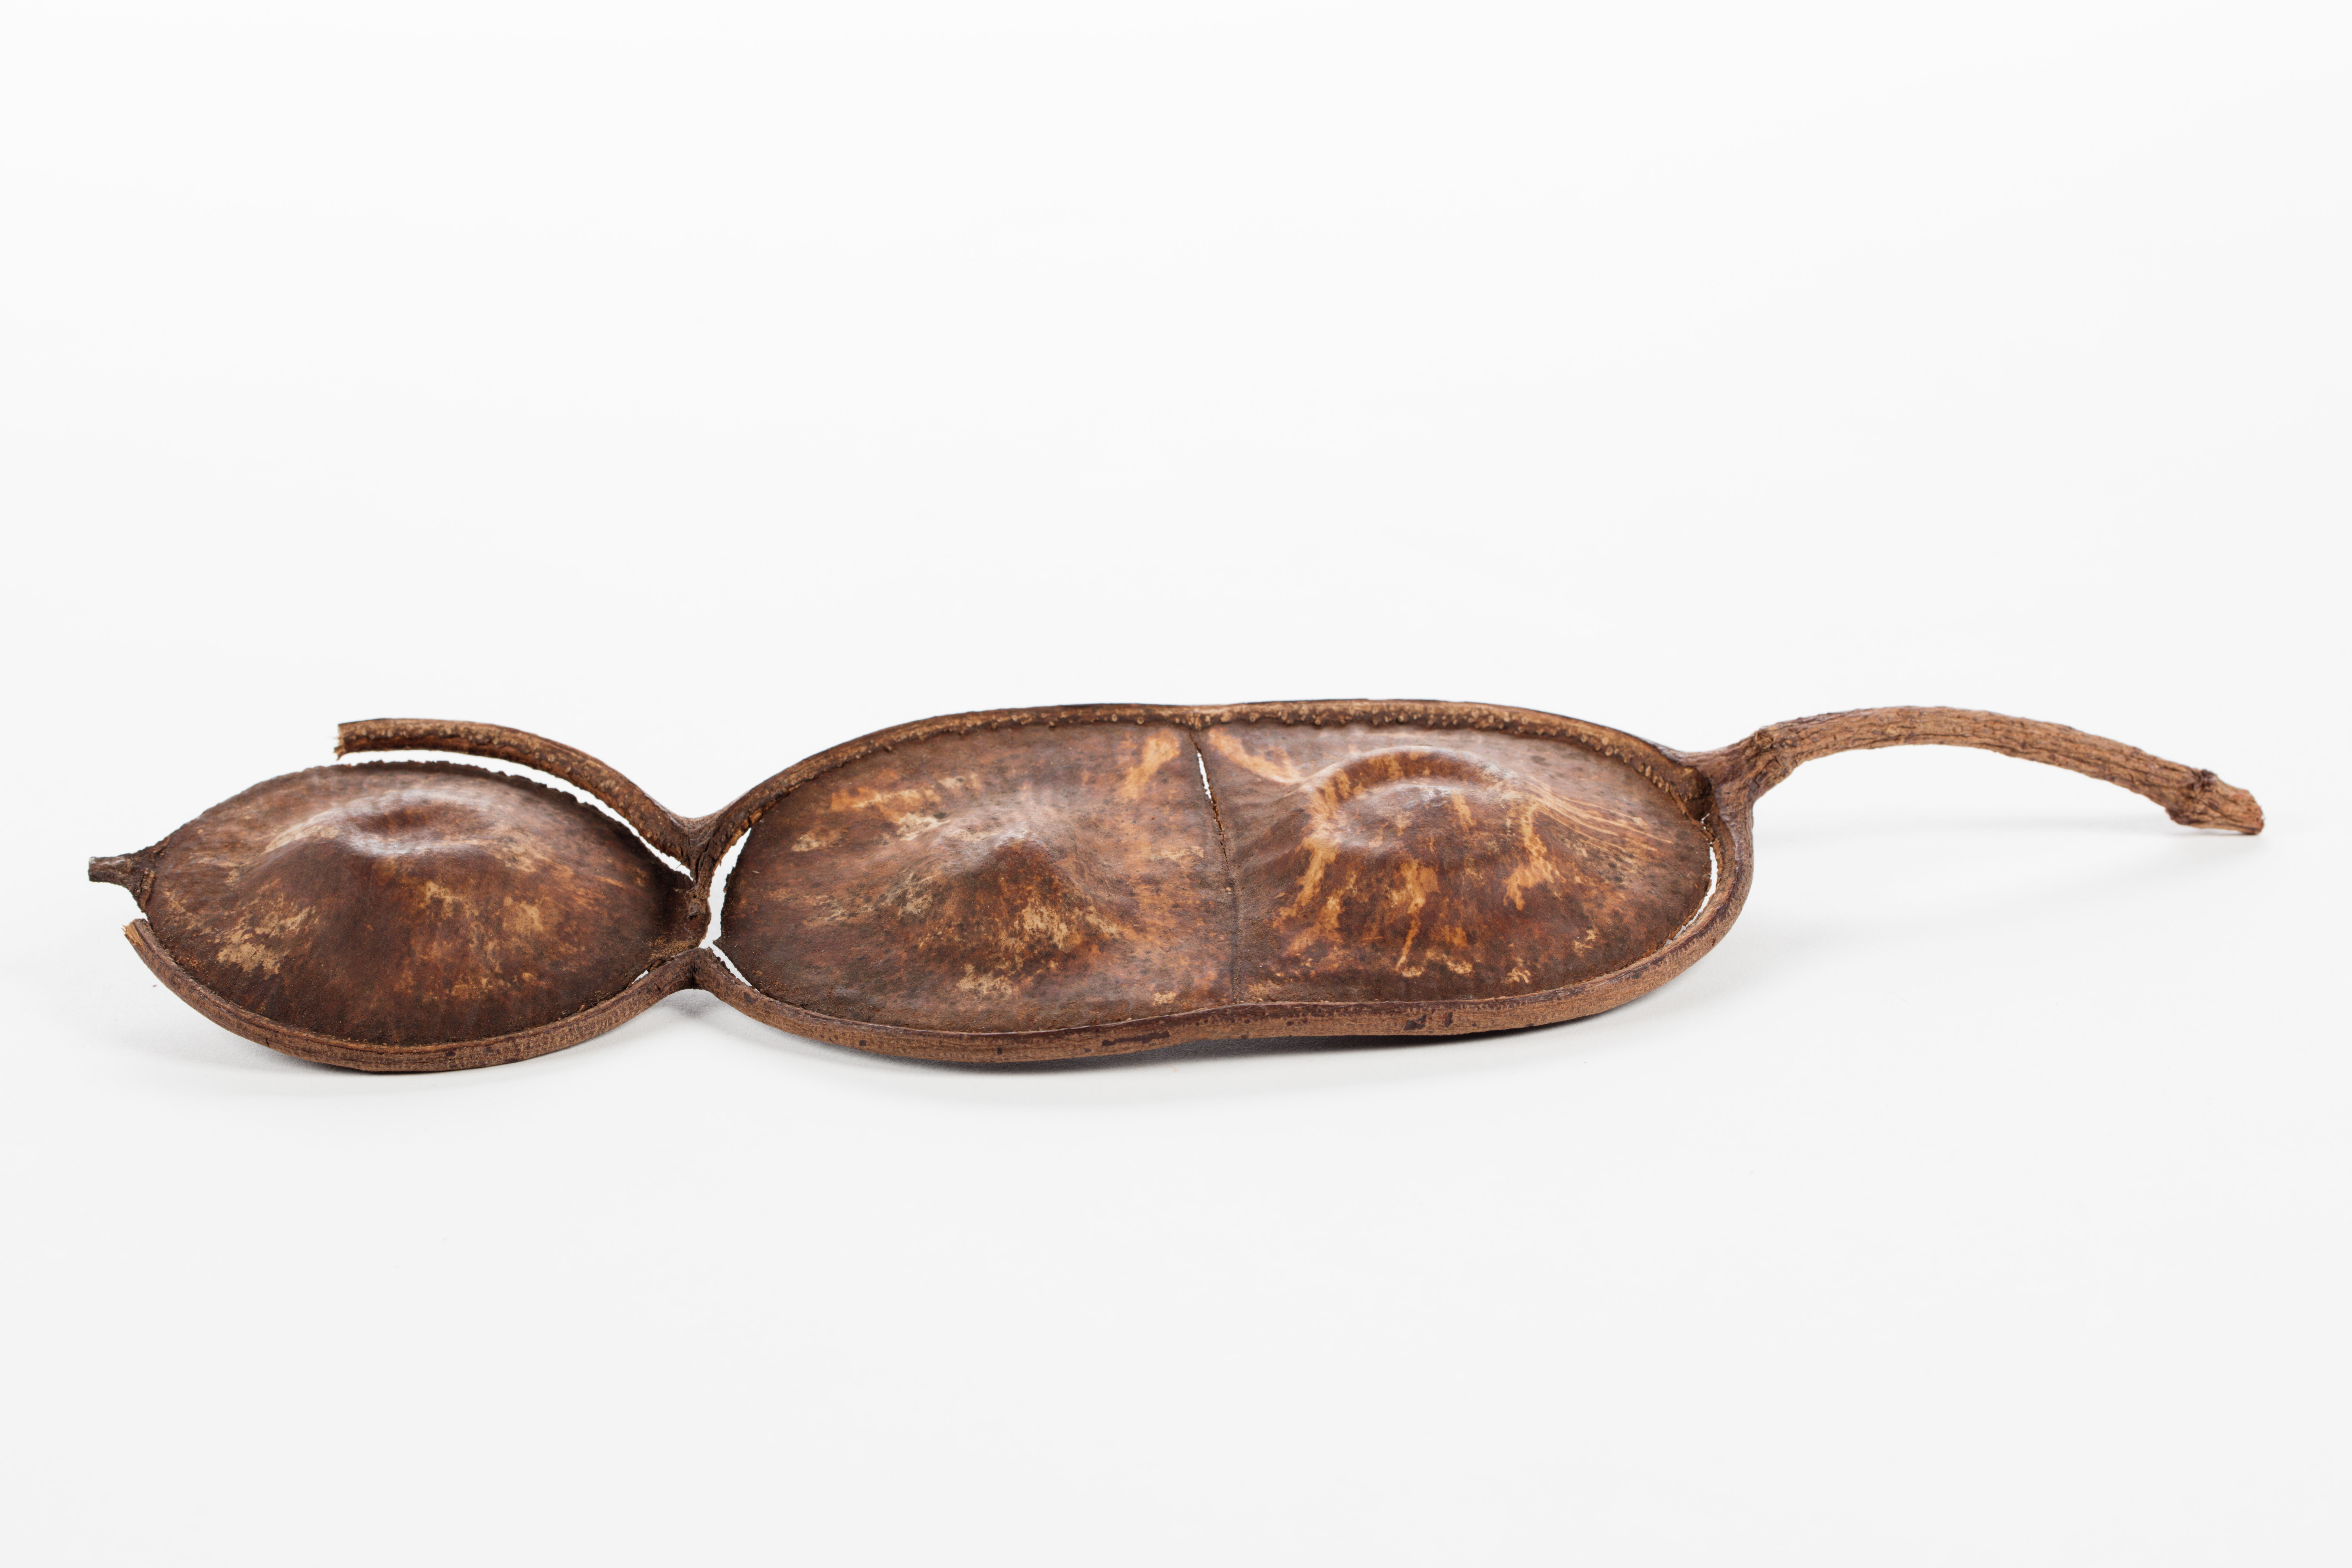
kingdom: Plantae
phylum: Tracheophyta
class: Magnoliopsida
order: Fabales
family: Fabaceae
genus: Entada
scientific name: Entada phaseoloides
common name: Matchbox-bean
